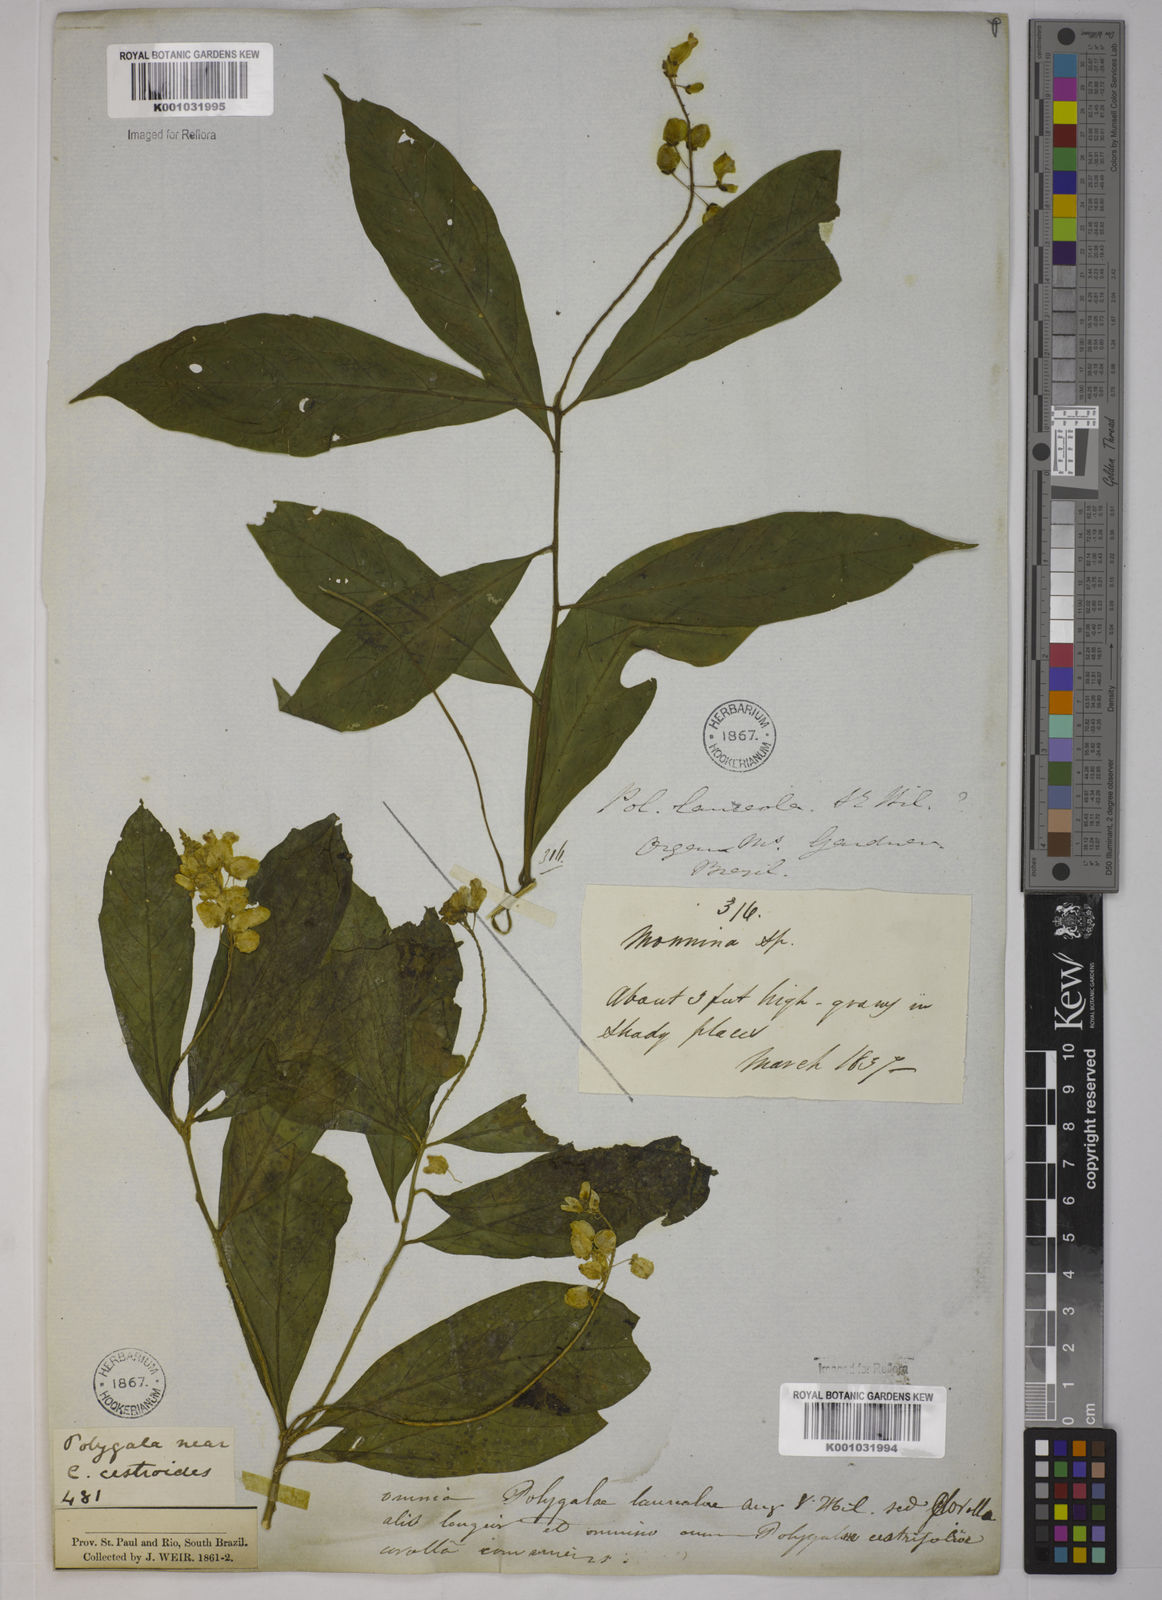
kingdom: Plantae
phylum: Tracheophyta
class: Magnoliopsida
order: Fabales
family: Polygalaceae
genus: Caamembeca
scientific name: Caamembeca salicifolia
